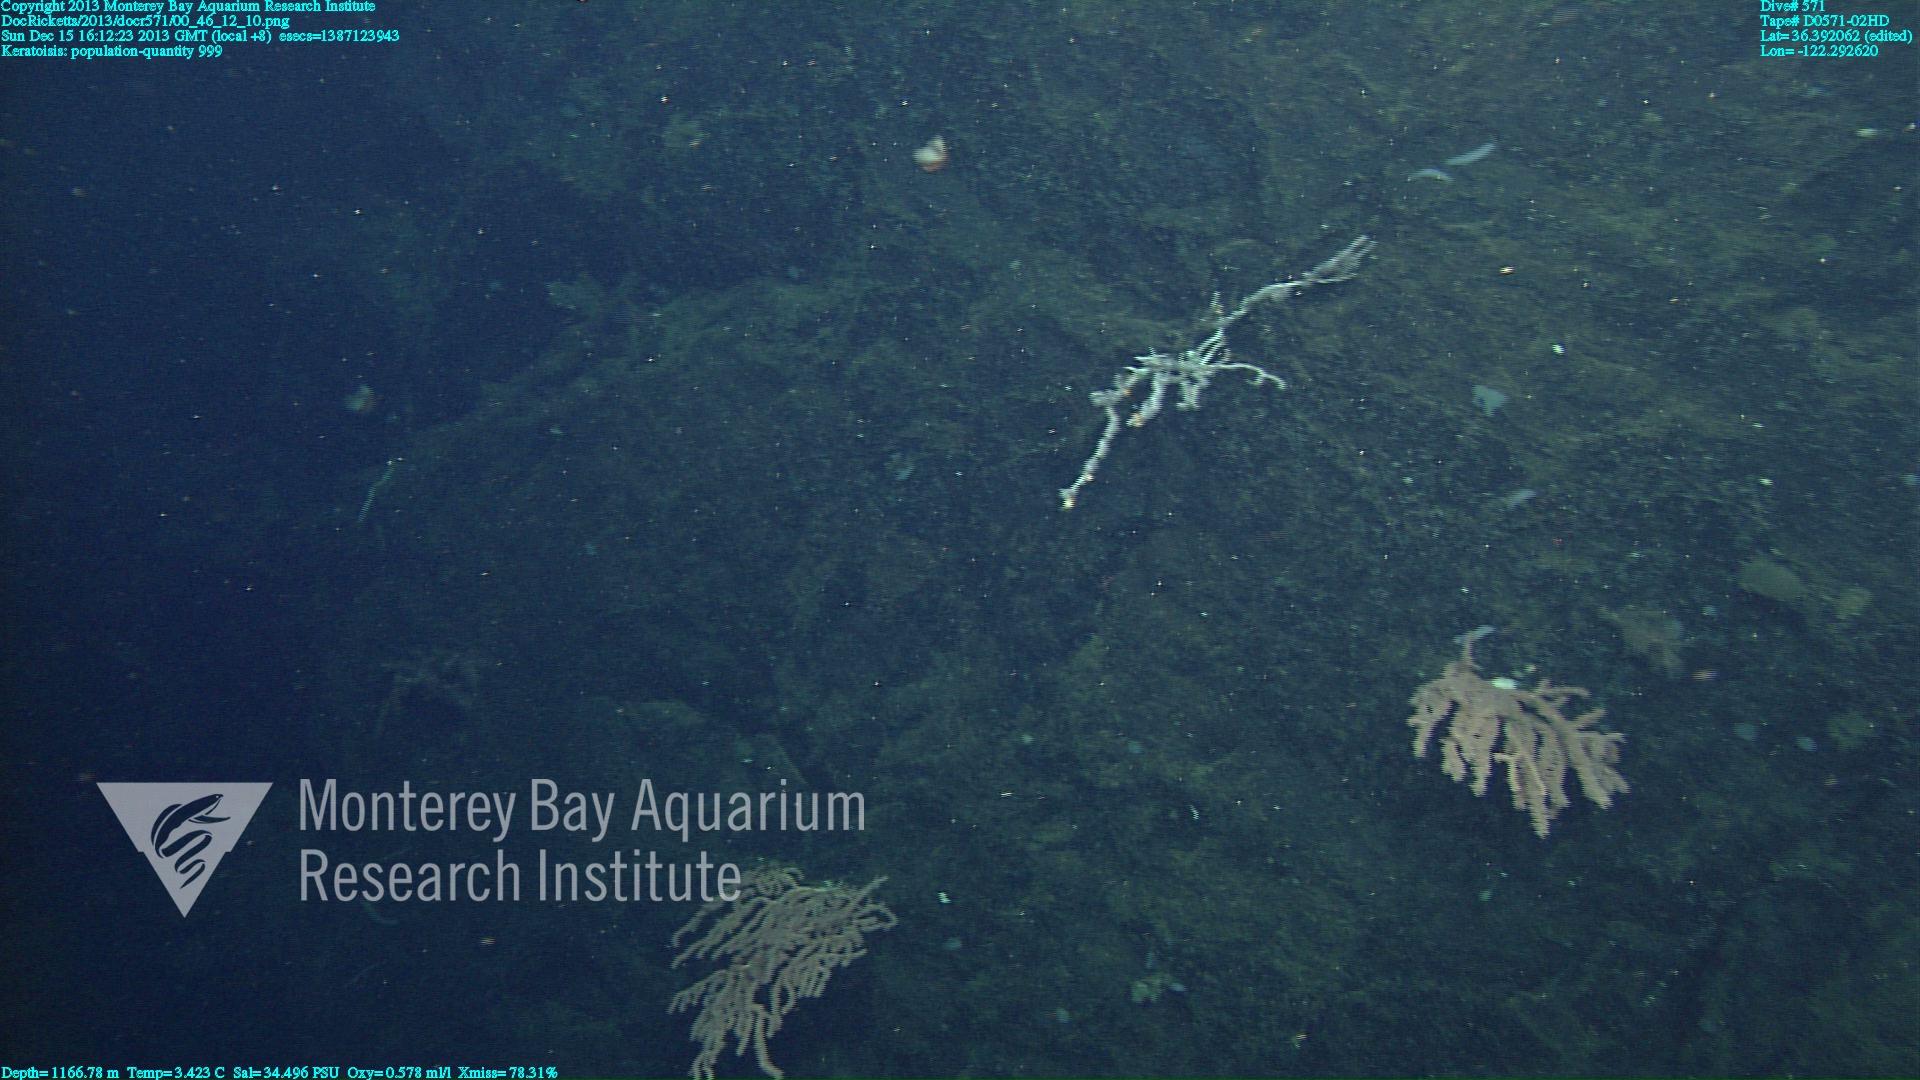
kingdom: Animalia
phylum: Cnidaria
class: Anthozoa
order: Scleralcyonacea
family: Keratoisididae
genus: Keratoisis
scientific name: Keratoisis
